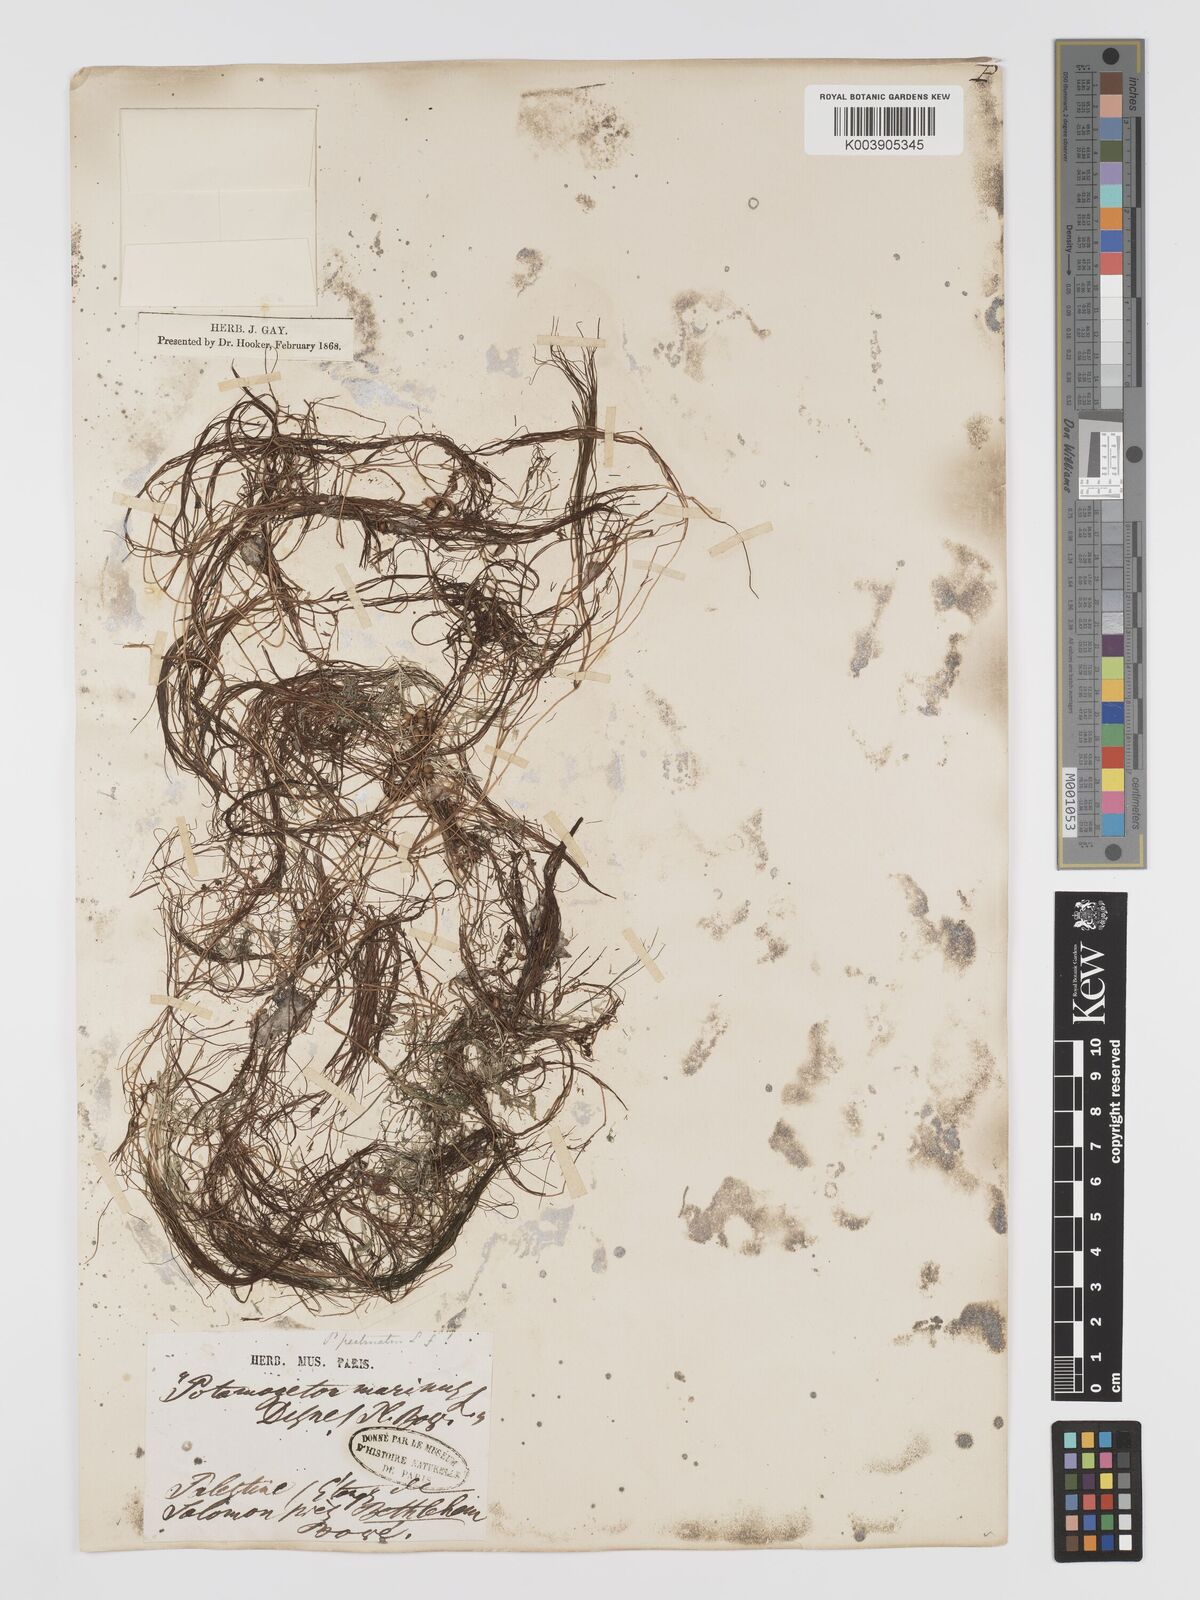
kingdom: Plantae
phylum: Tracheophyta
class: Liliopsida
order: Alismatales
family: Potamogetonaceae
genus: Stuckenia
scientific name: Stuckenia pectinata
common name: Sago pondweed
